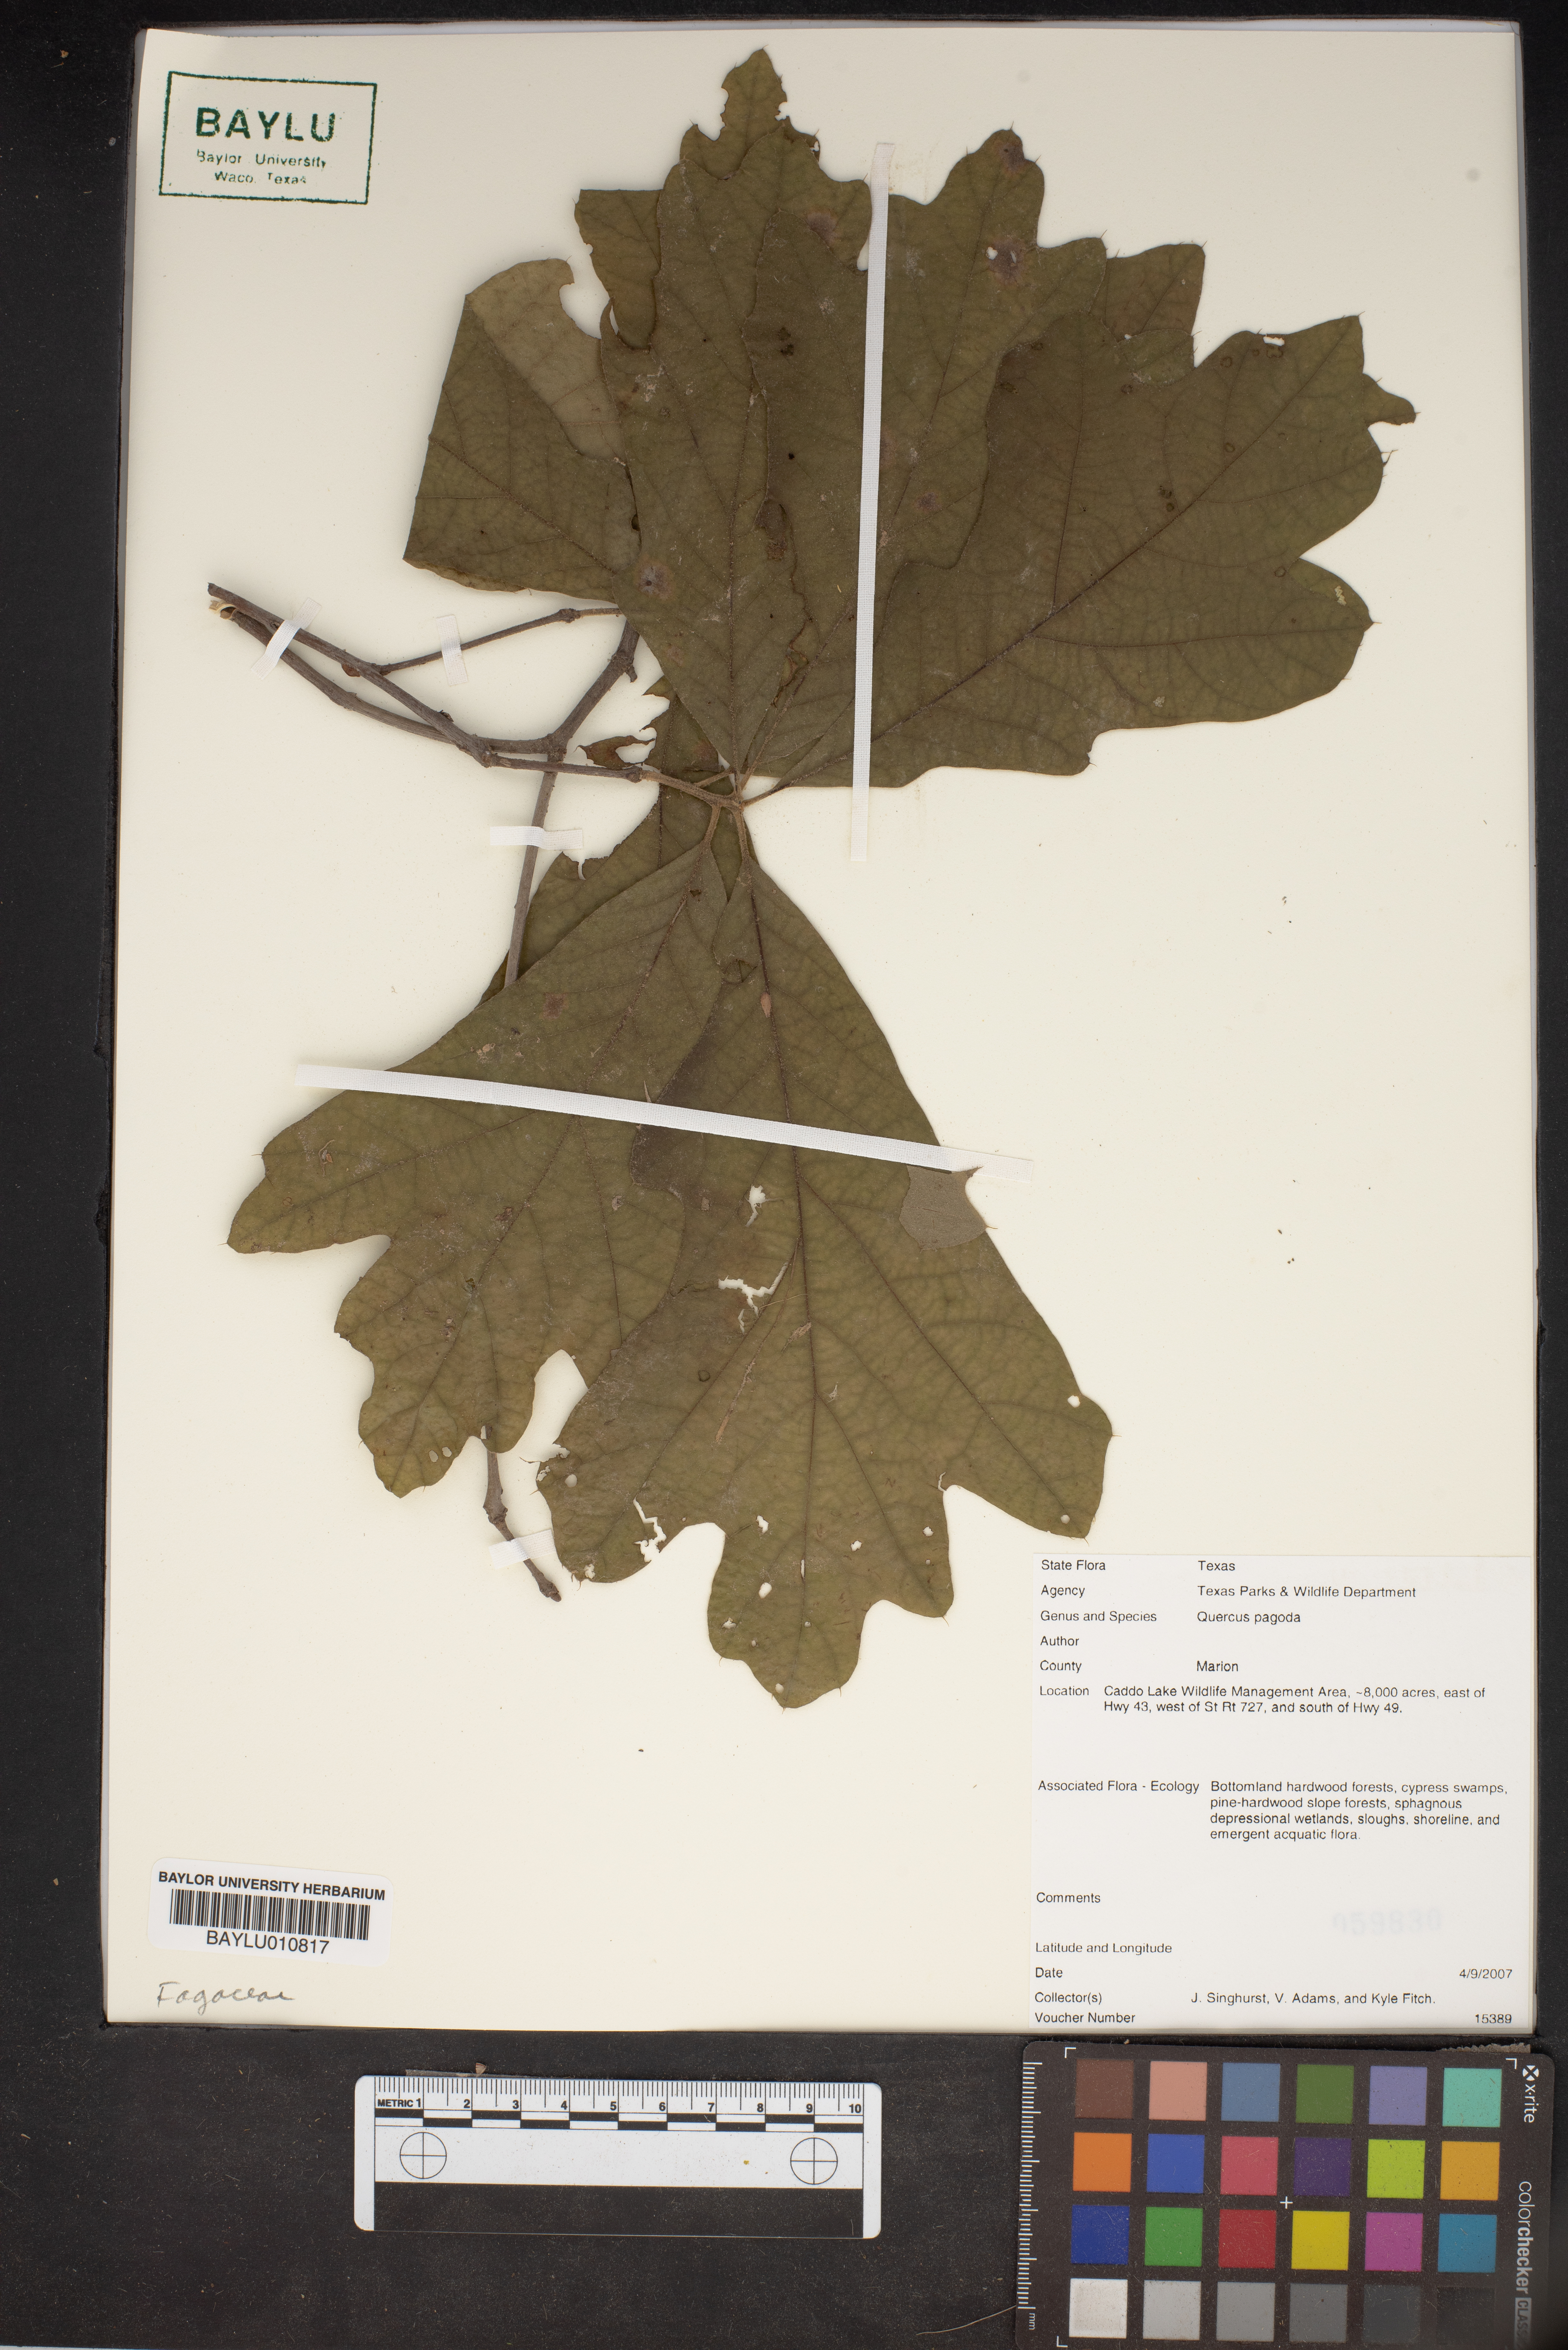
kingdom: Plantae
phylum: Tracheophyta
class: Magnoliopsida
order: Fagales
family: Fagaceae
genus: Quercus
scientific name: Quercus pagoda
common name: Cherrybark oak
